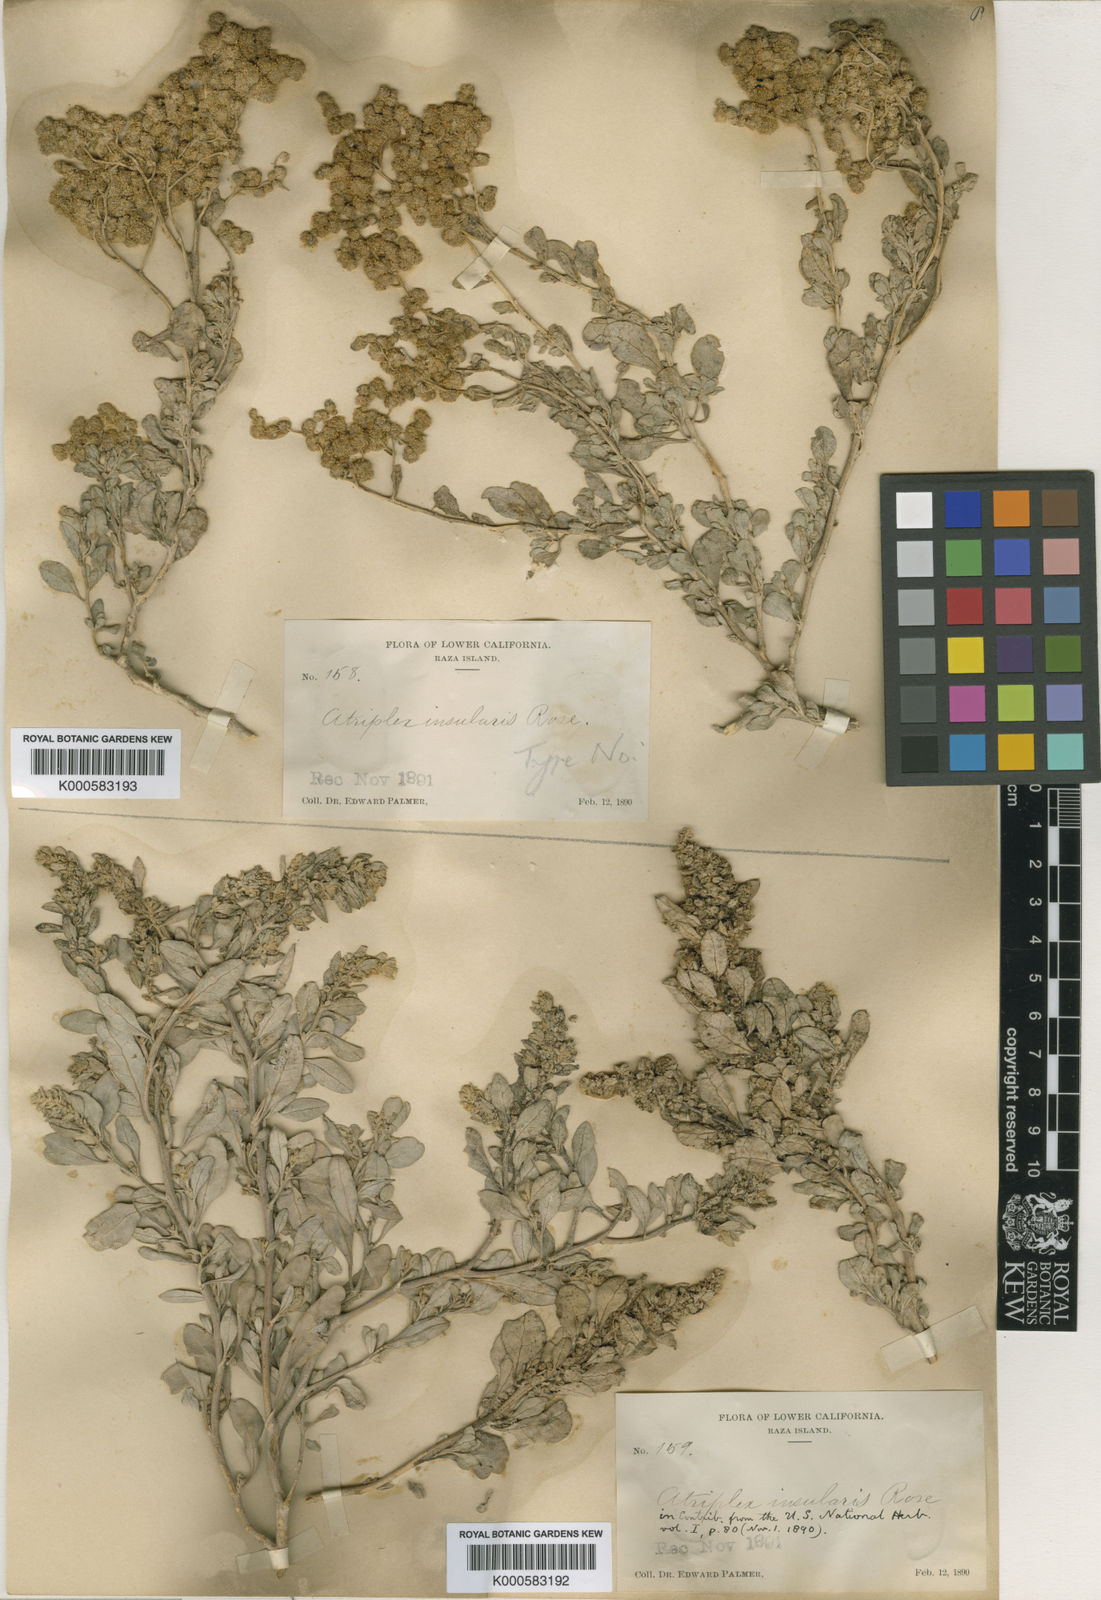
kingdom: Plantae
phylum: Tracheophyta
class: Magnoliopsida
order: Caryophyllales
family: Amaranthaceae
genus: Atriplex
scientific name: Atriplex barclayana
